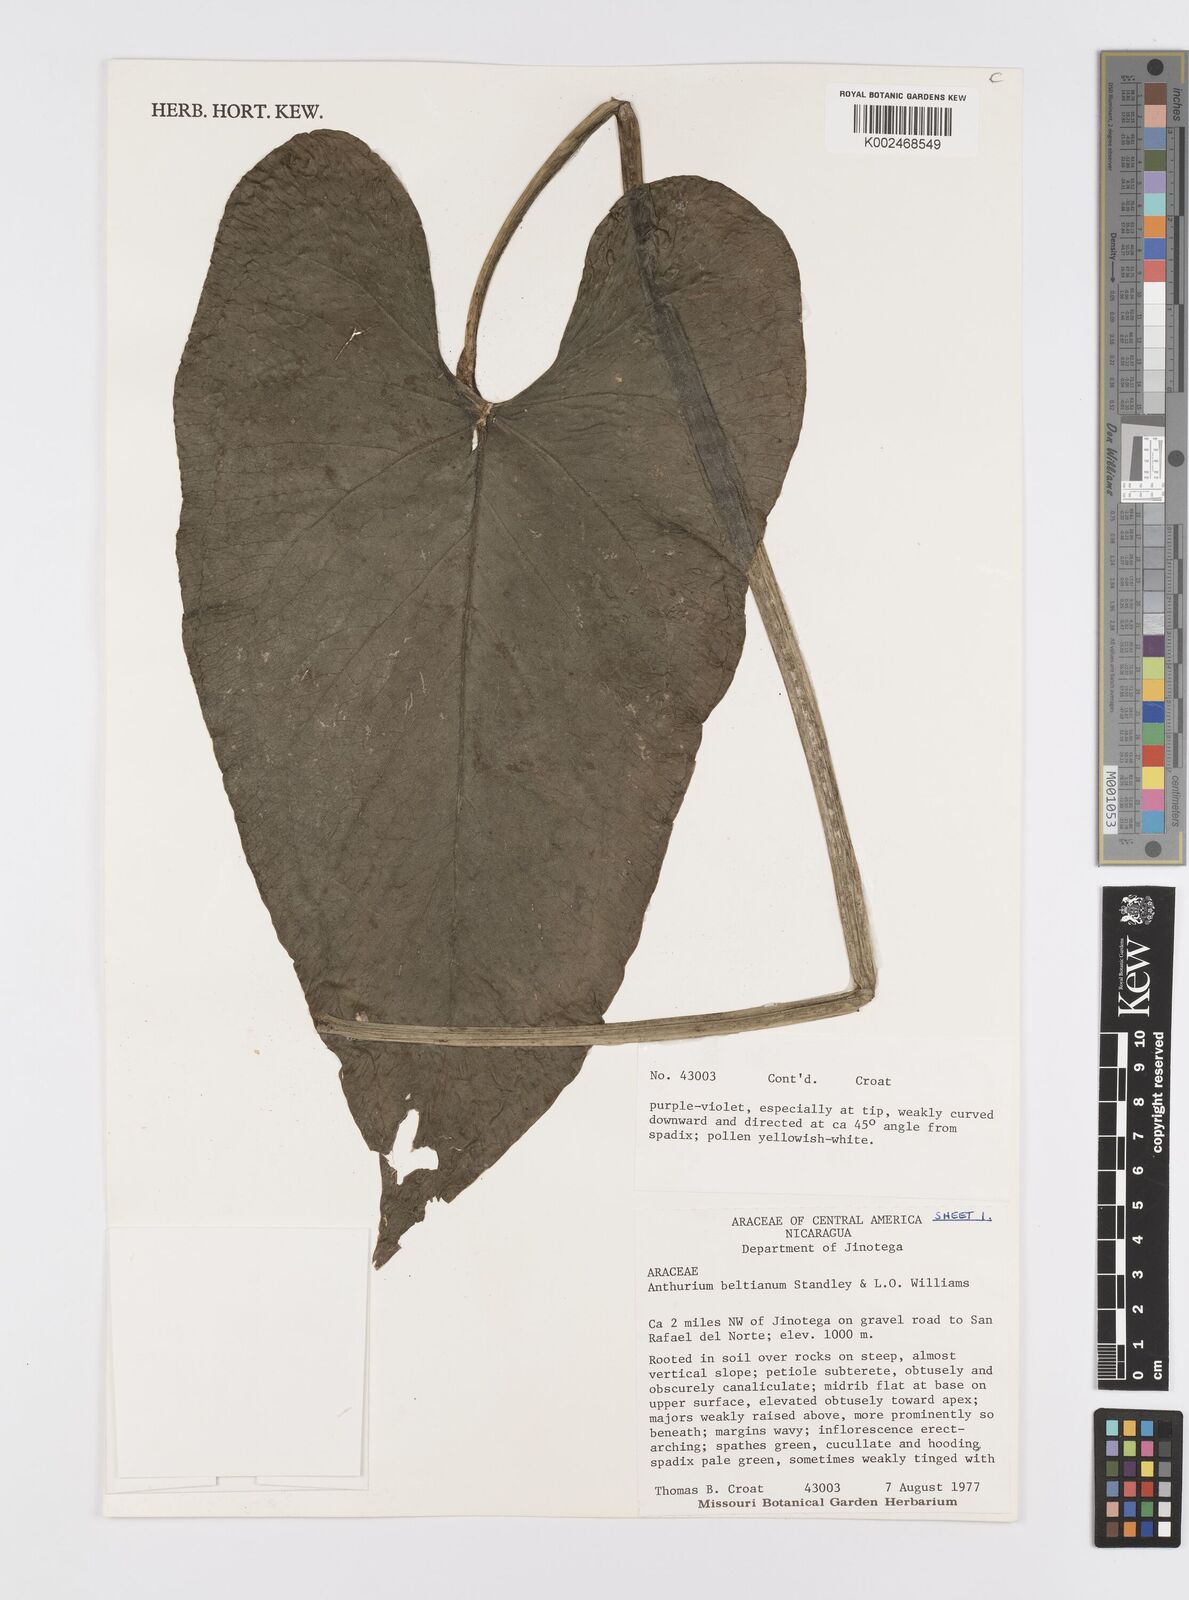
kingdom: Plantae
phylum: Tracheophyta
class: Liliopsida
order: Alismatales
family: Araceae
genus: Anthurium
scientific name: Anthurium beltianum
